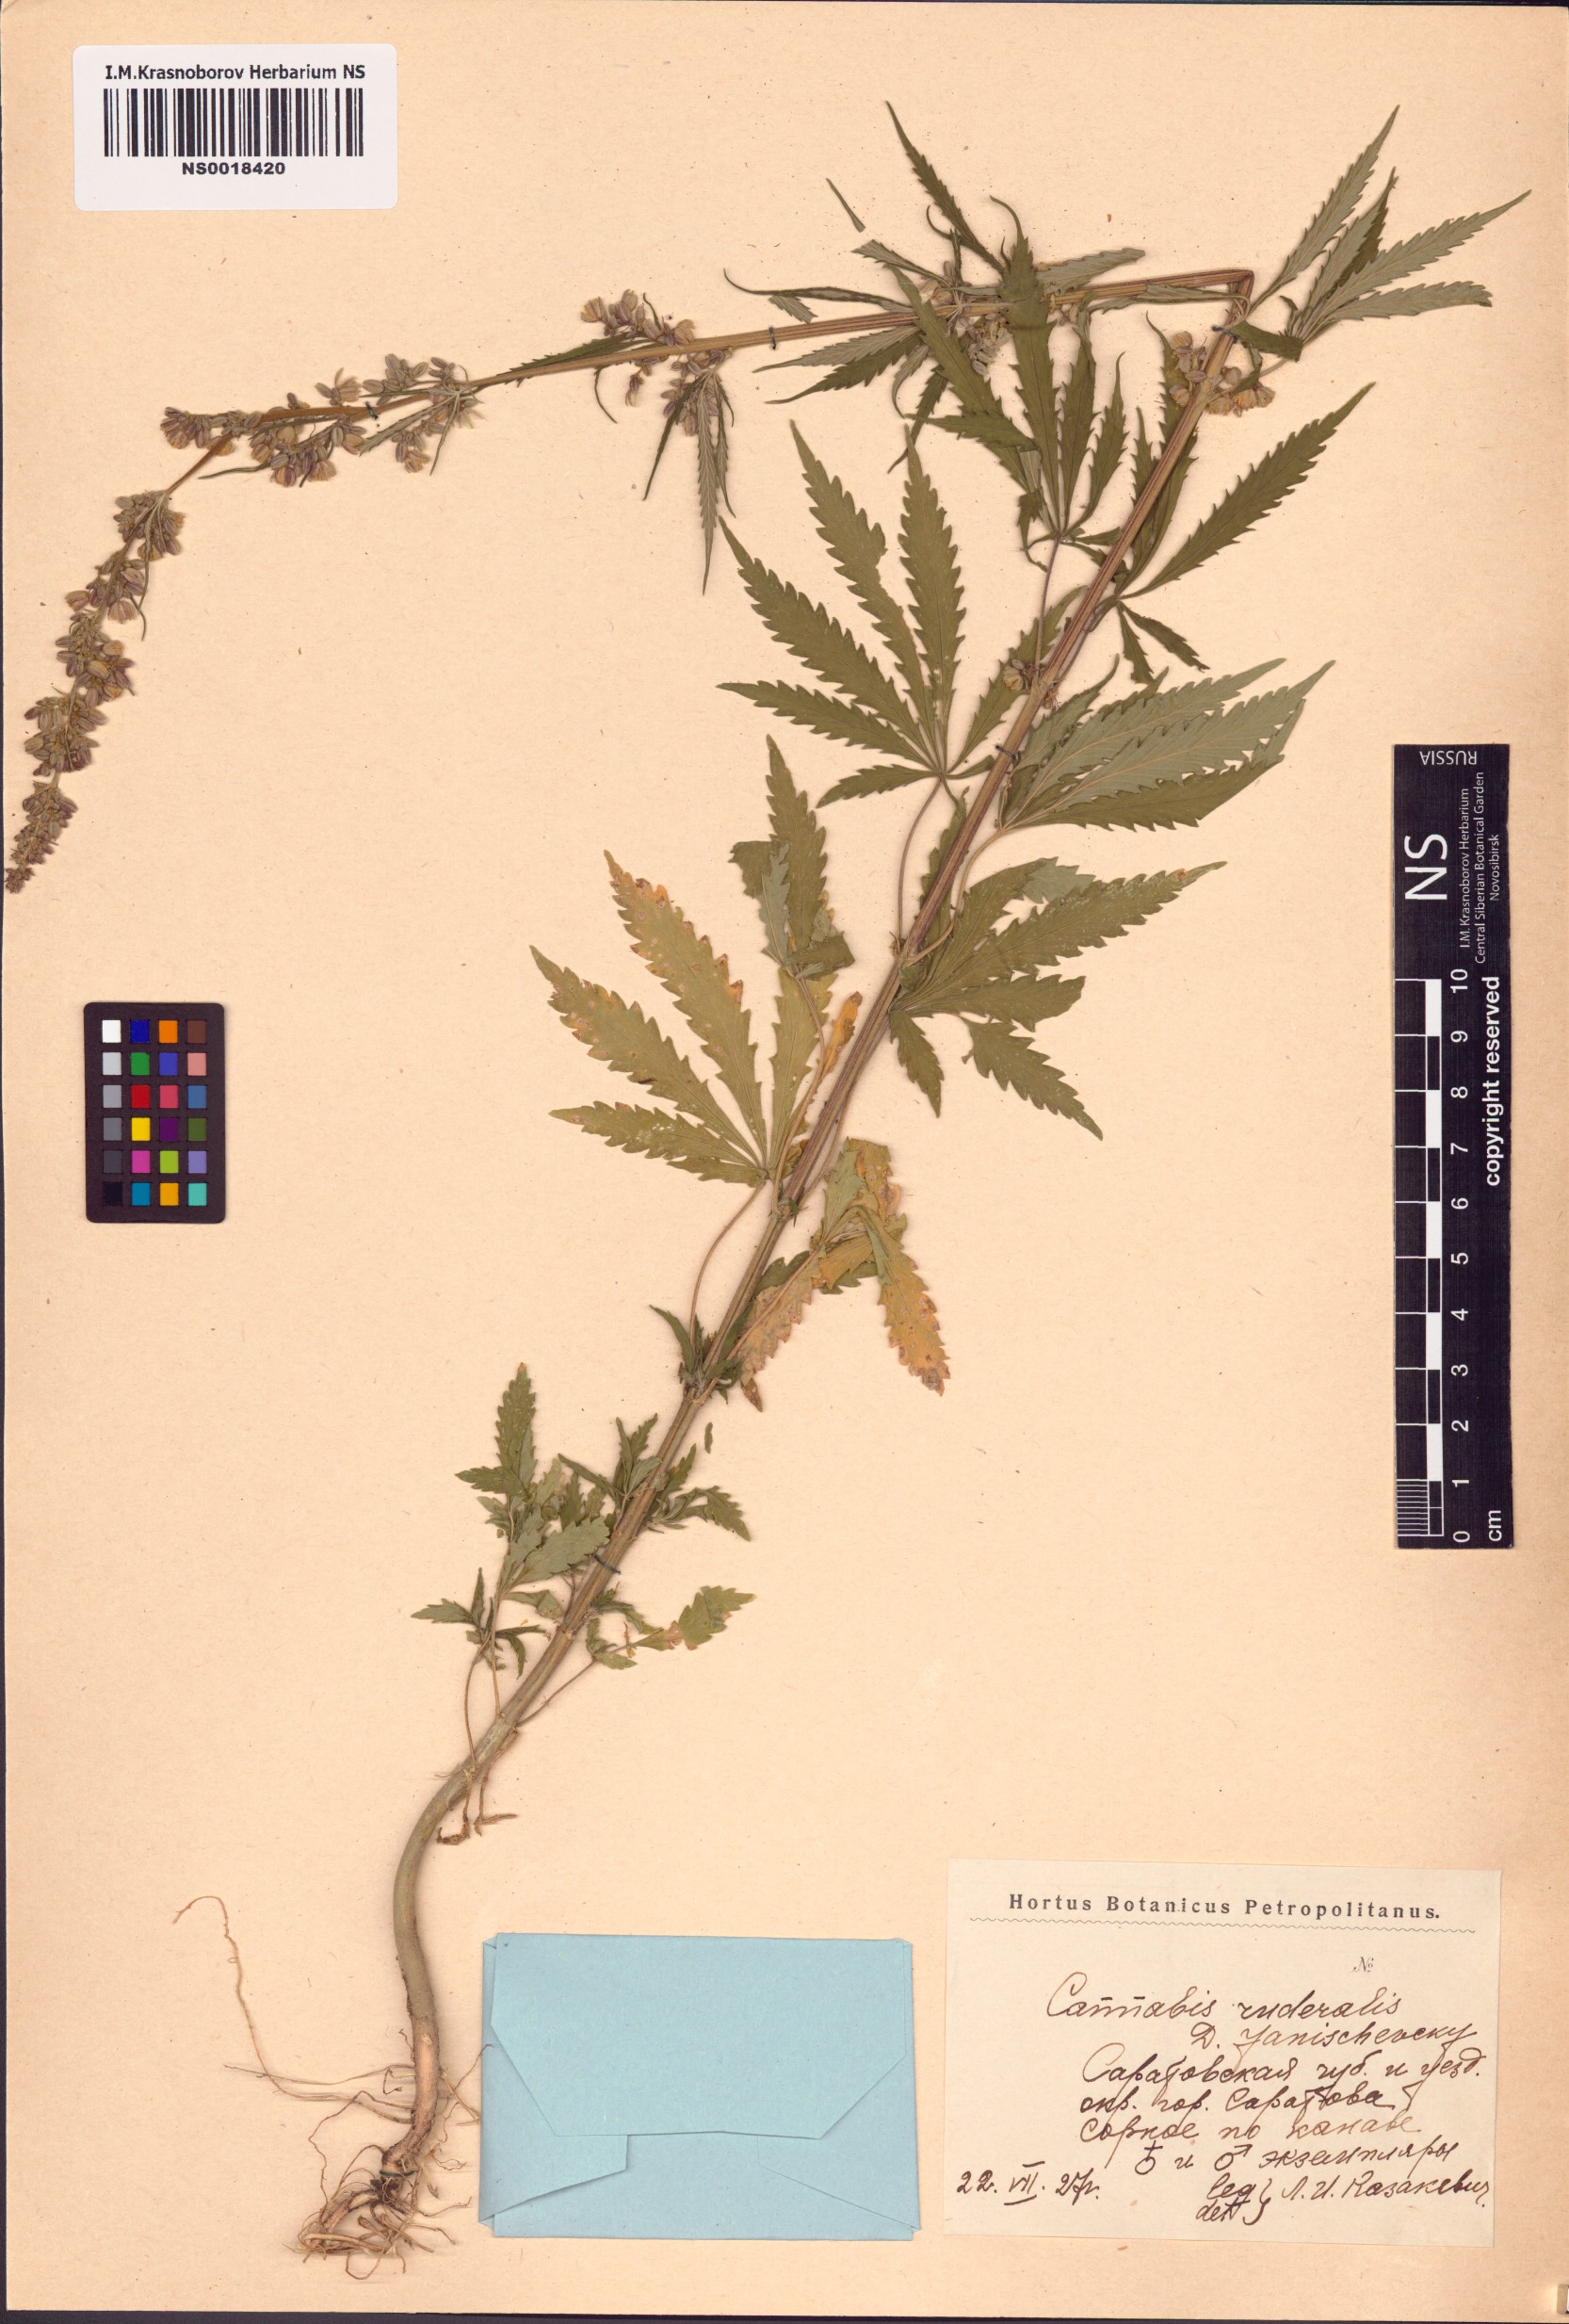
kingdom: Plantae
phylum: Tracheophyta
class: Magnoliopsida
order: Rosales
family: Cannabaceae
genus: Cannabis
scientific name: Cannabis sativa
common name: Hemp
